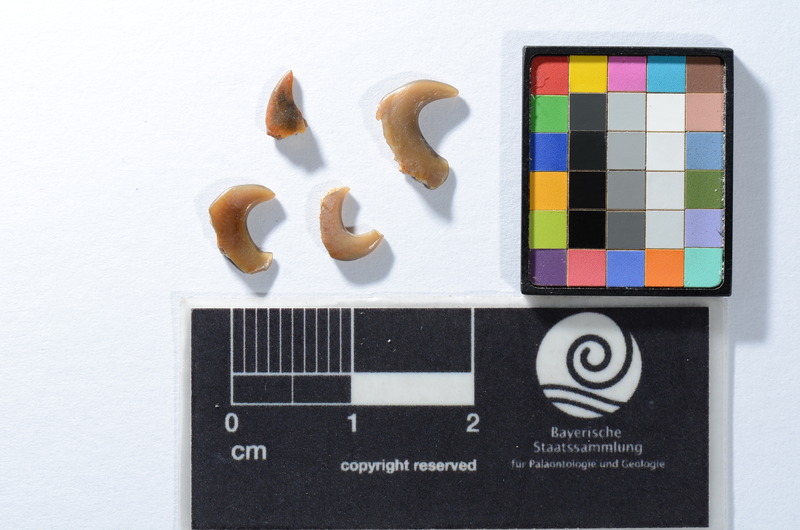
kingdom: Animalia
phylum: Chordata
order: Tetraodontiformes
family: Trigonodontidae
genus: Stephanodus
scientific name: Stephanodus Ancistrodon lybicus
